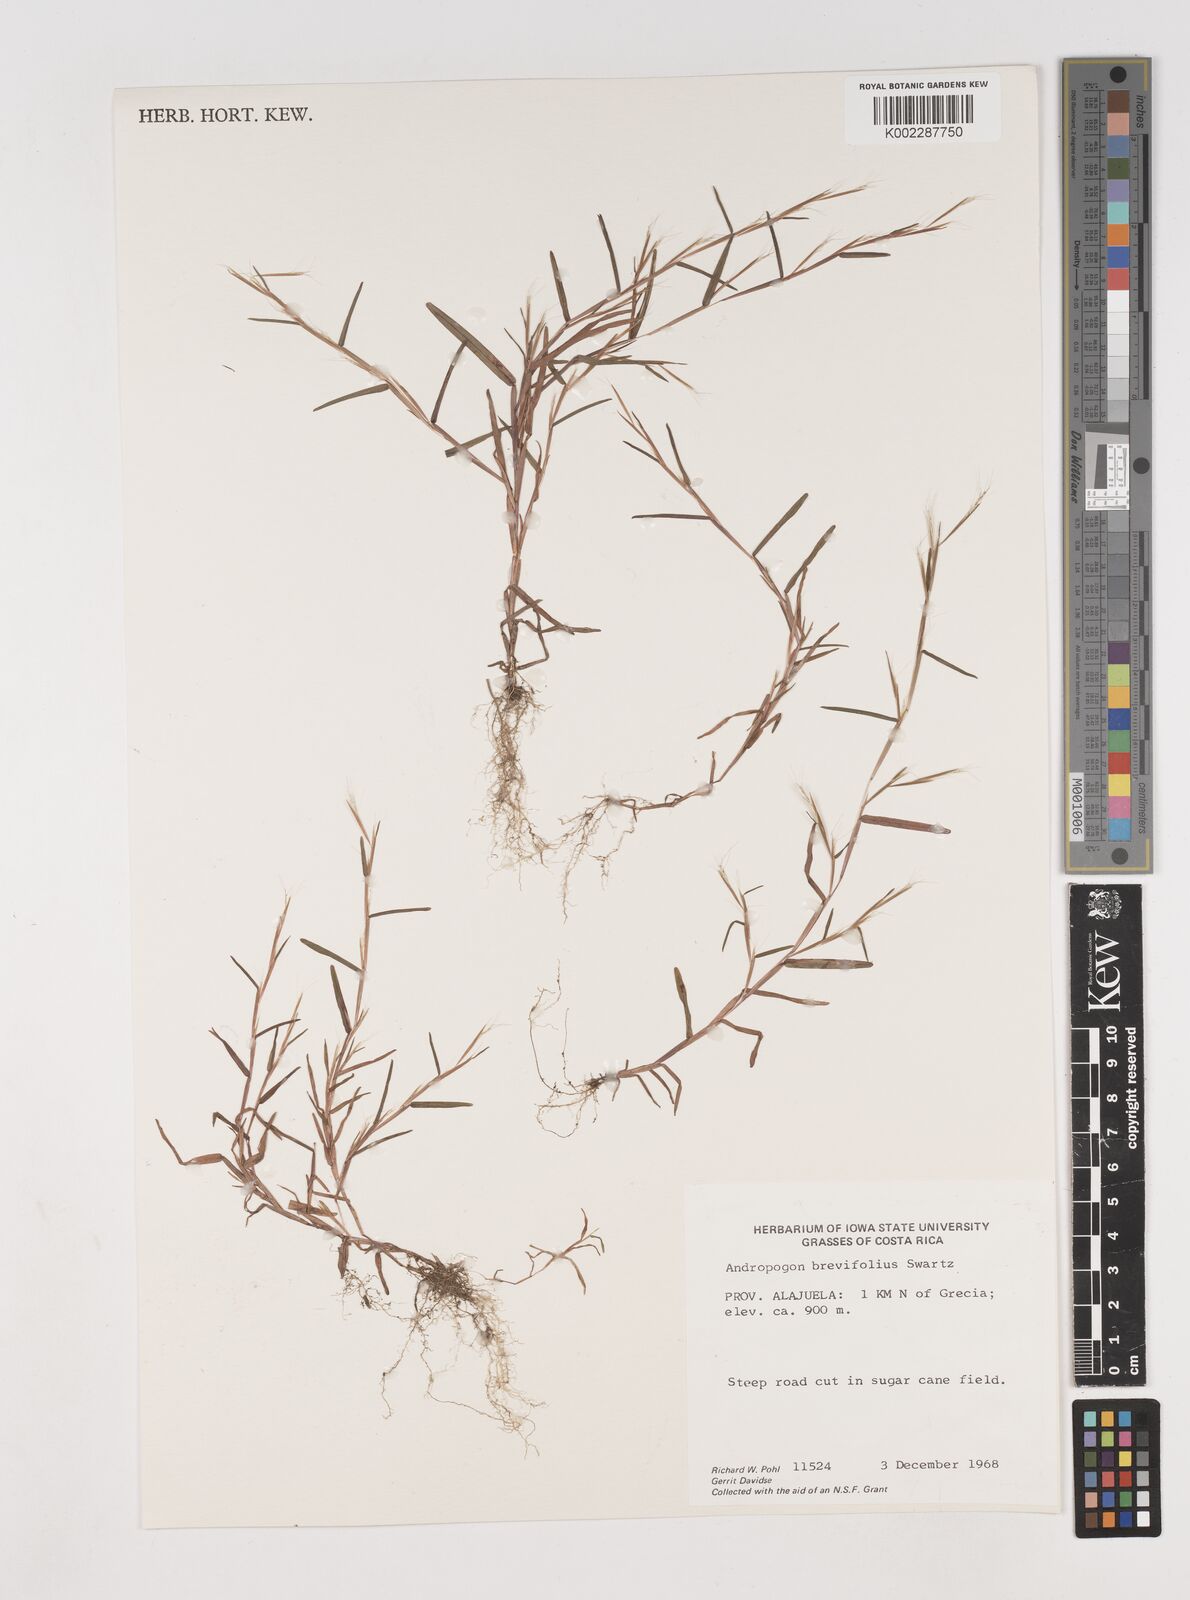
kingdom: Plantae
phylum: Tracheophyta
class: Liliopsida
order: Poales
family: Poaceae
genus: Schizachyrium
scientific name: Schizachyrium brevifolium
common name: Serillo dulce
